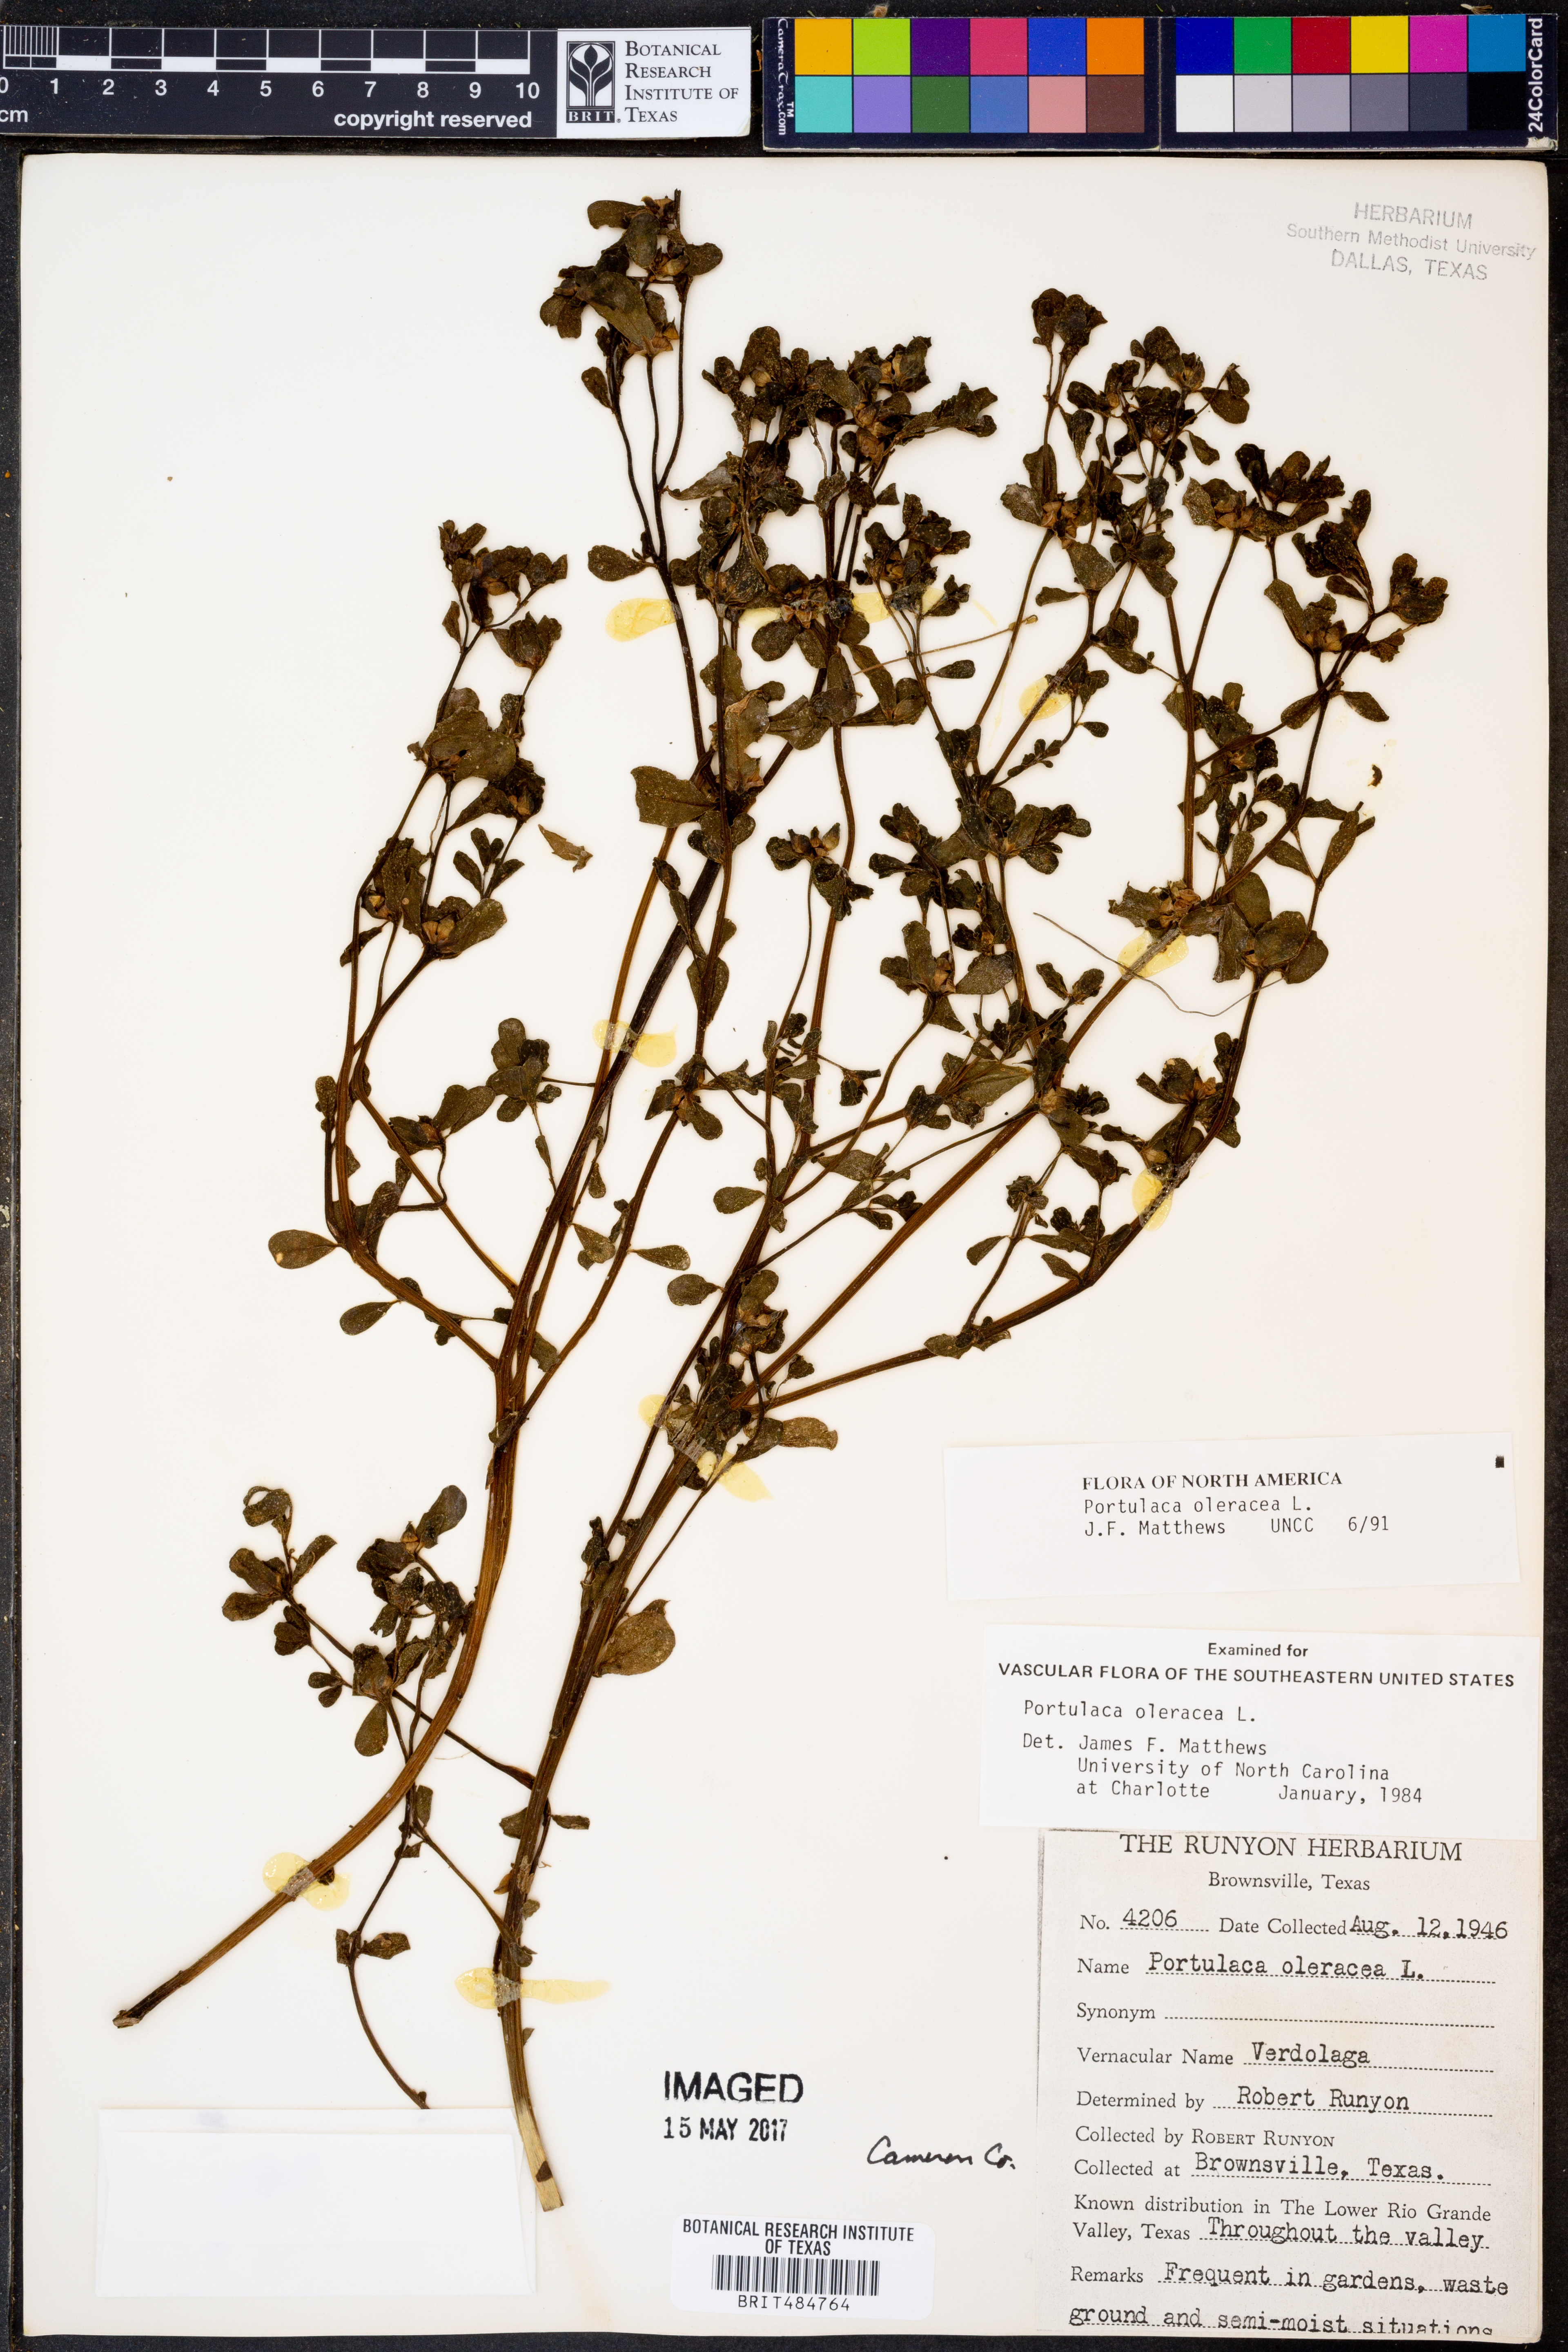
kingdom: Plantae
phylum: Tracheophyta
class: Magnoliopsida
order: Caryophyllales
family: Portulacaceae
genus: Portulaca
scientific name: Portulaca oleracea
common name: Common purslane
